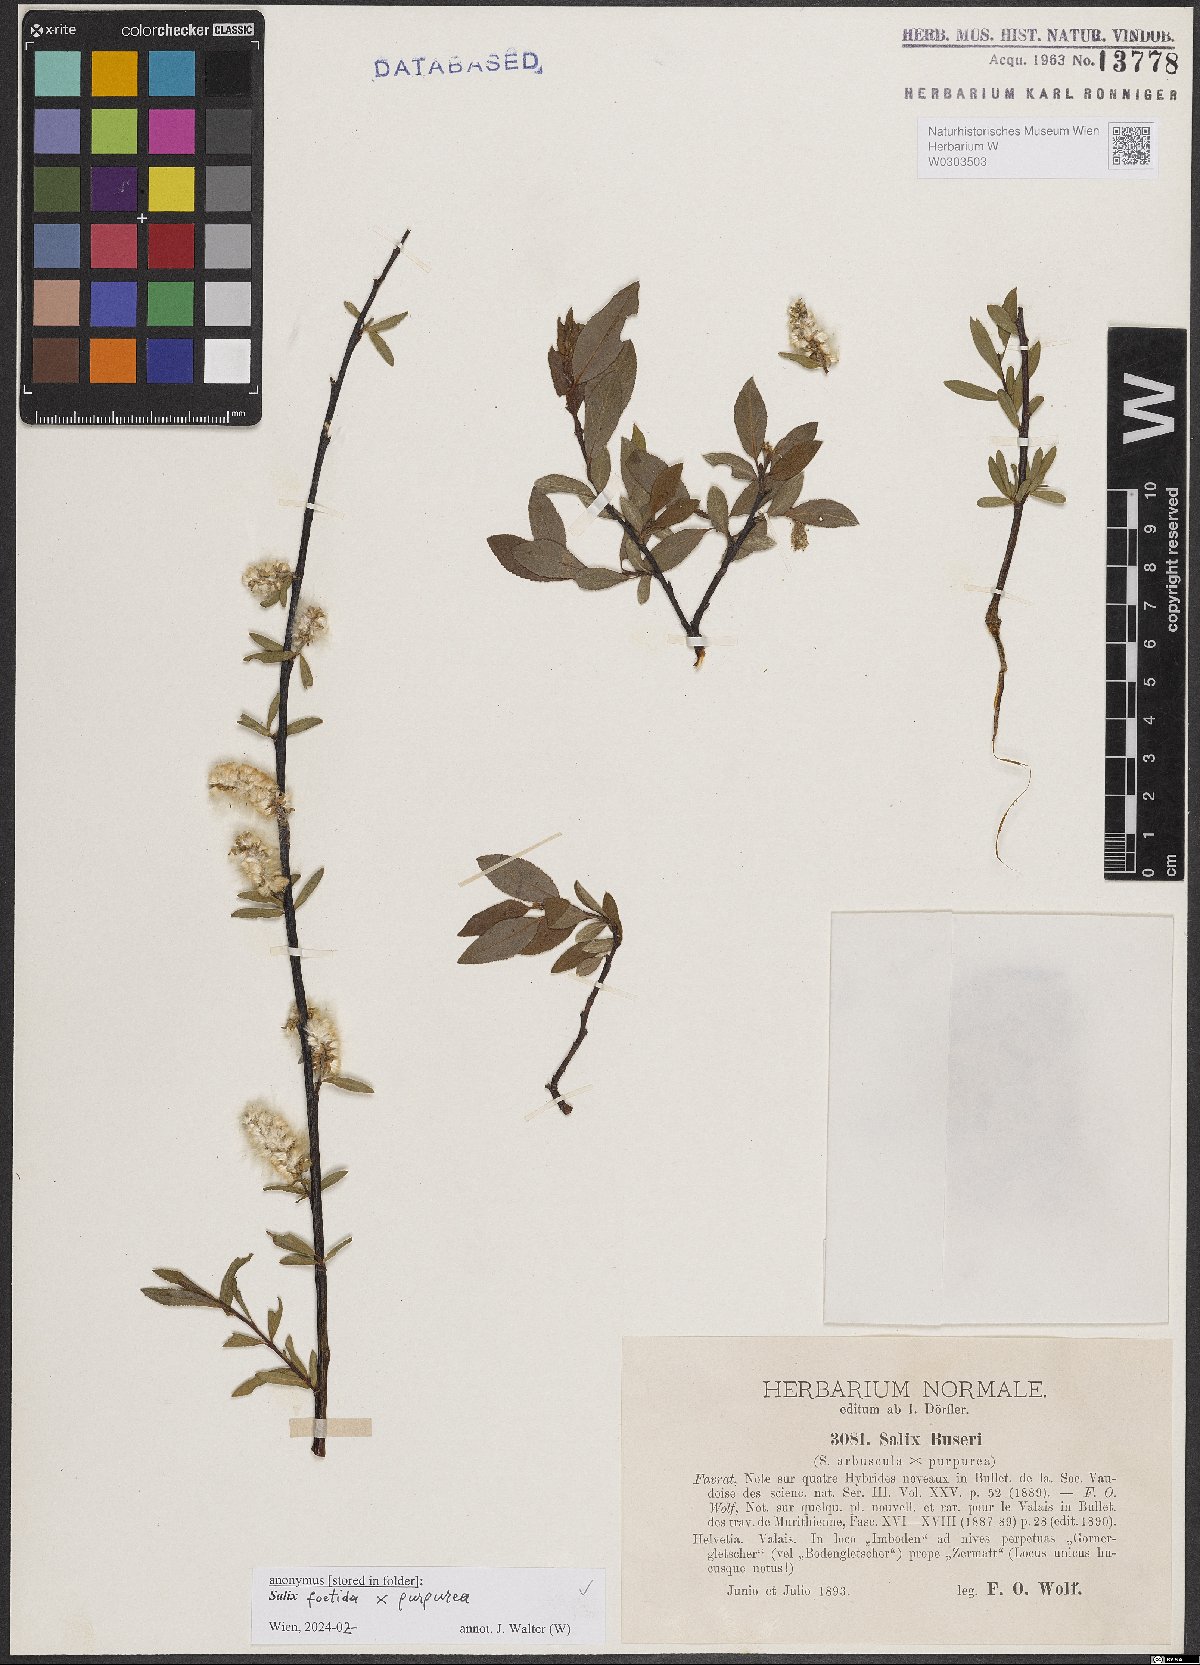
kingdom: Plantae
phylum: Tracheophyta
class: Magnoliopsida
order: Malpighiales
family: Salicaceae
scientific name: Salicaceae
